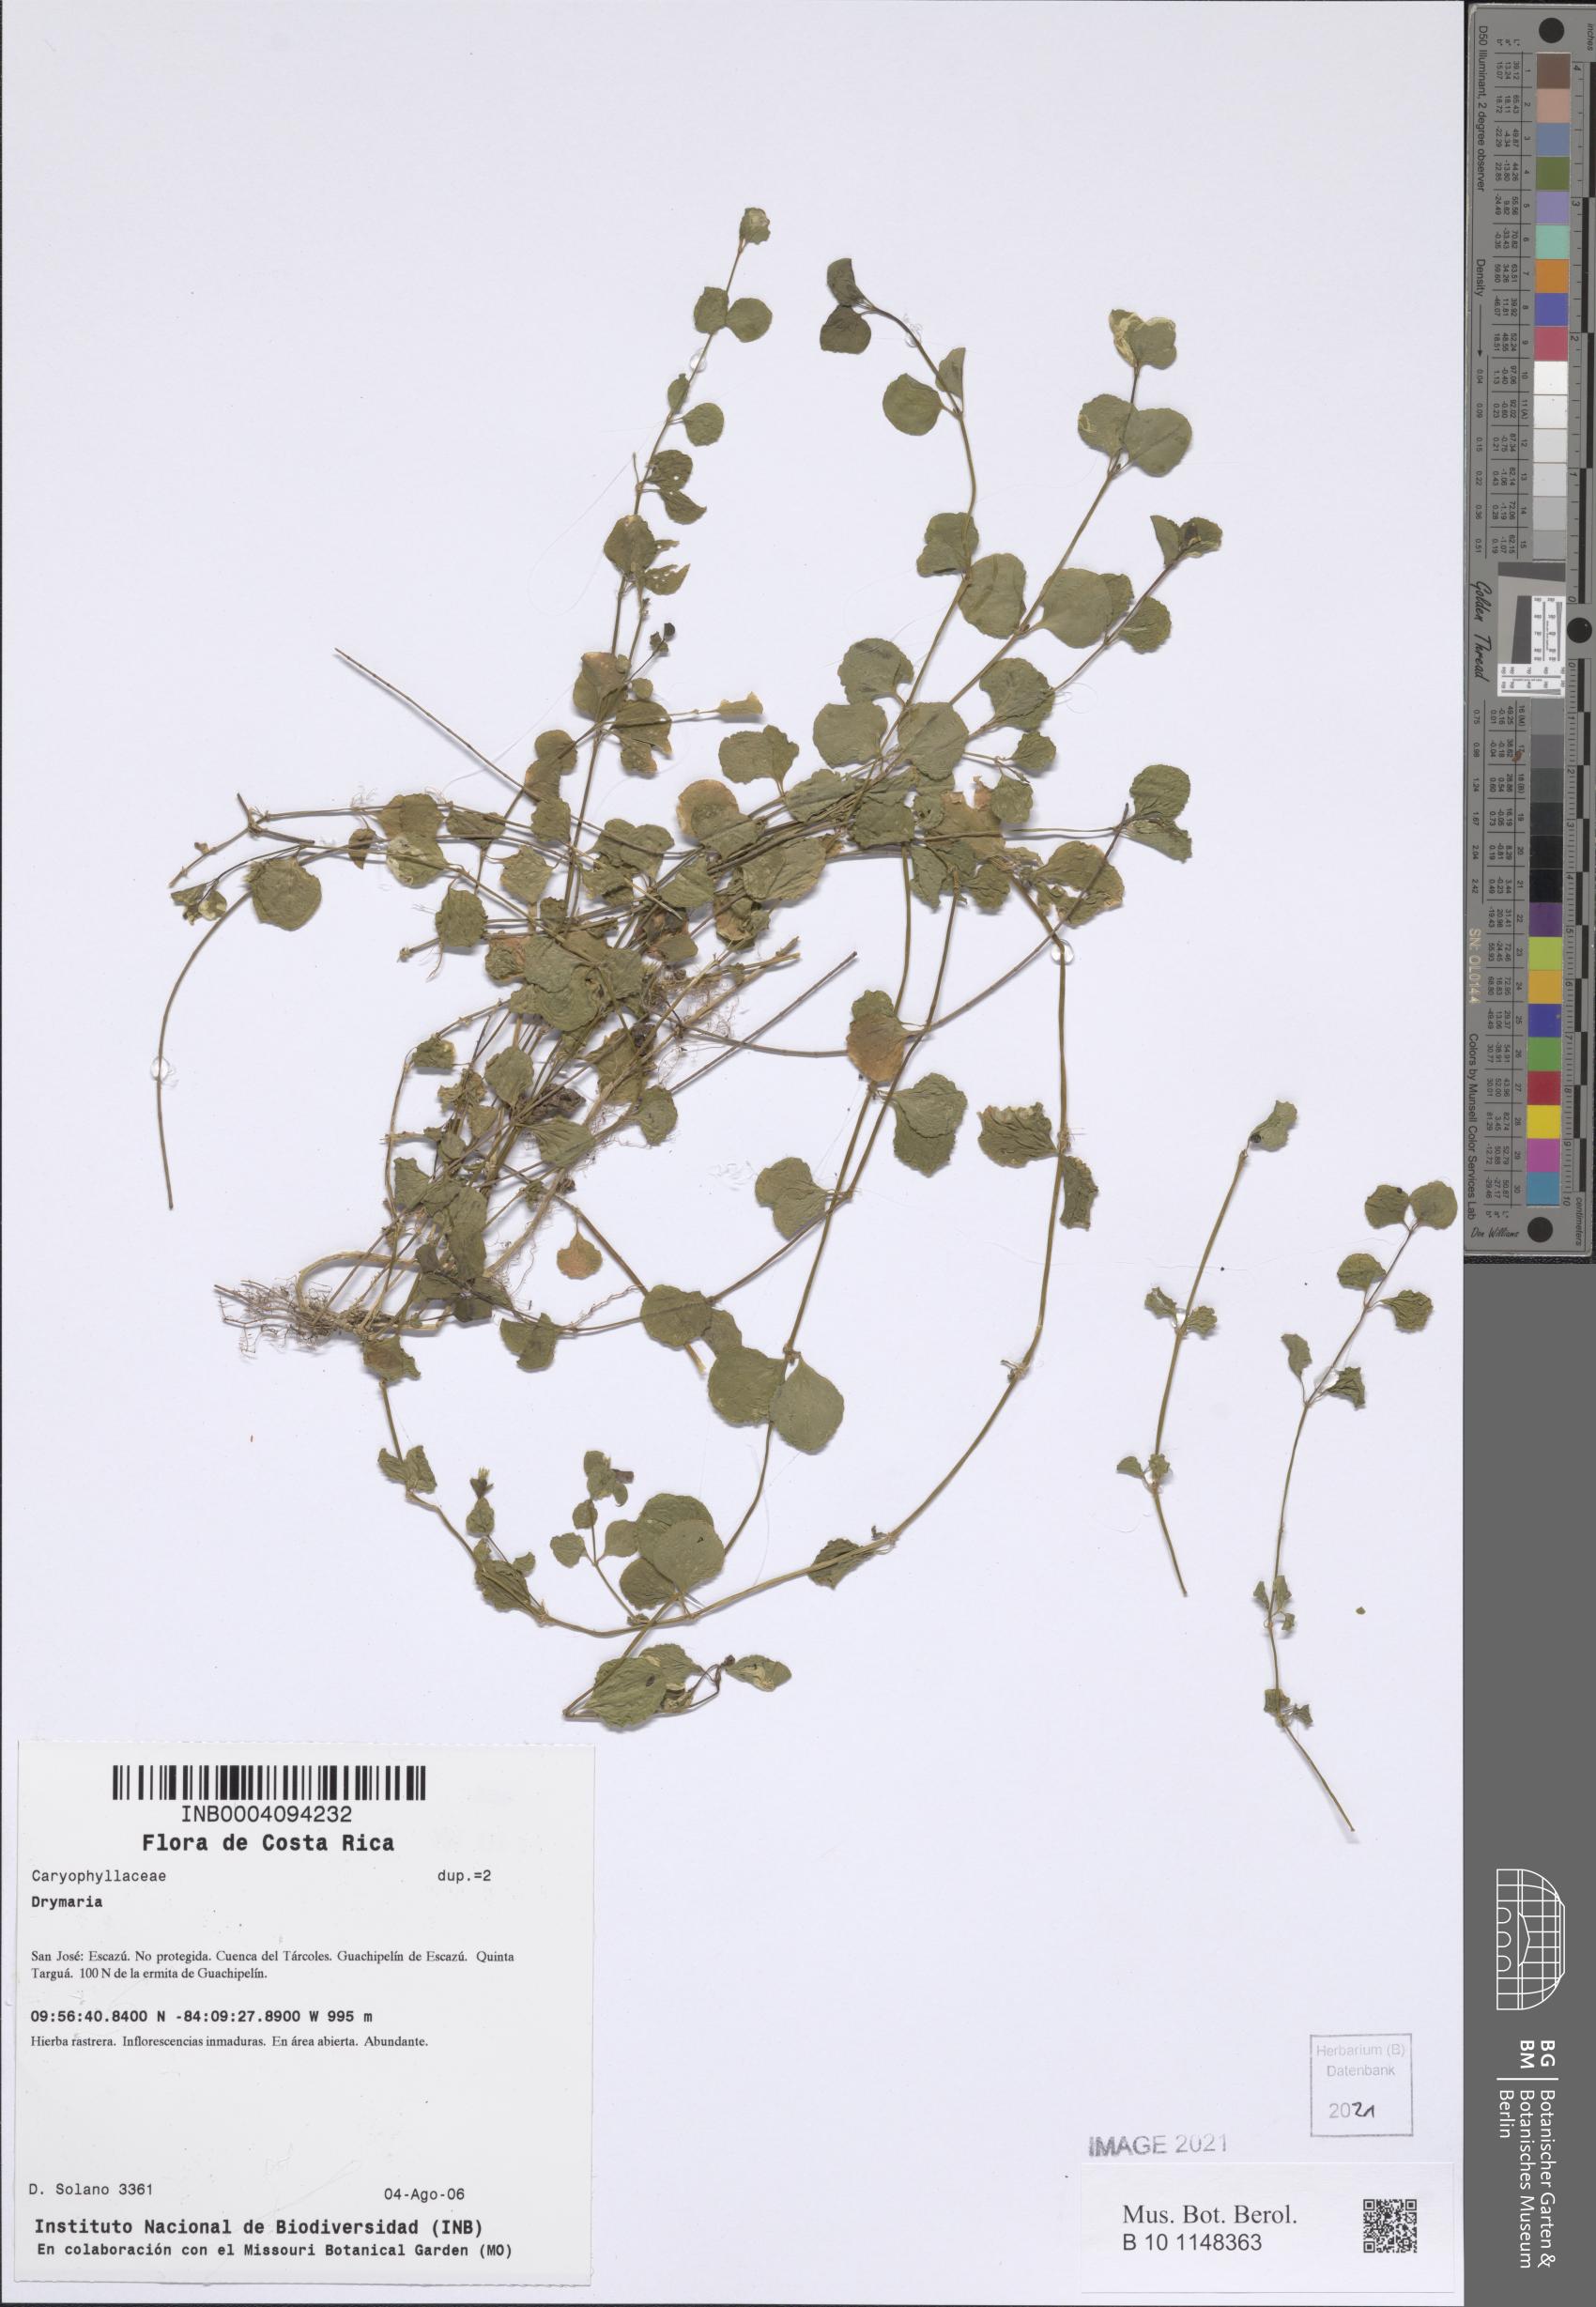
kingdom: Plantae
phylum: Tracheophyta
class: Magnoliopsida
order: Caryophyllales
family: Caryophyllaceae
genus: Drymaria
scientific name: Drymaria cordata
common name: Whitesnow
